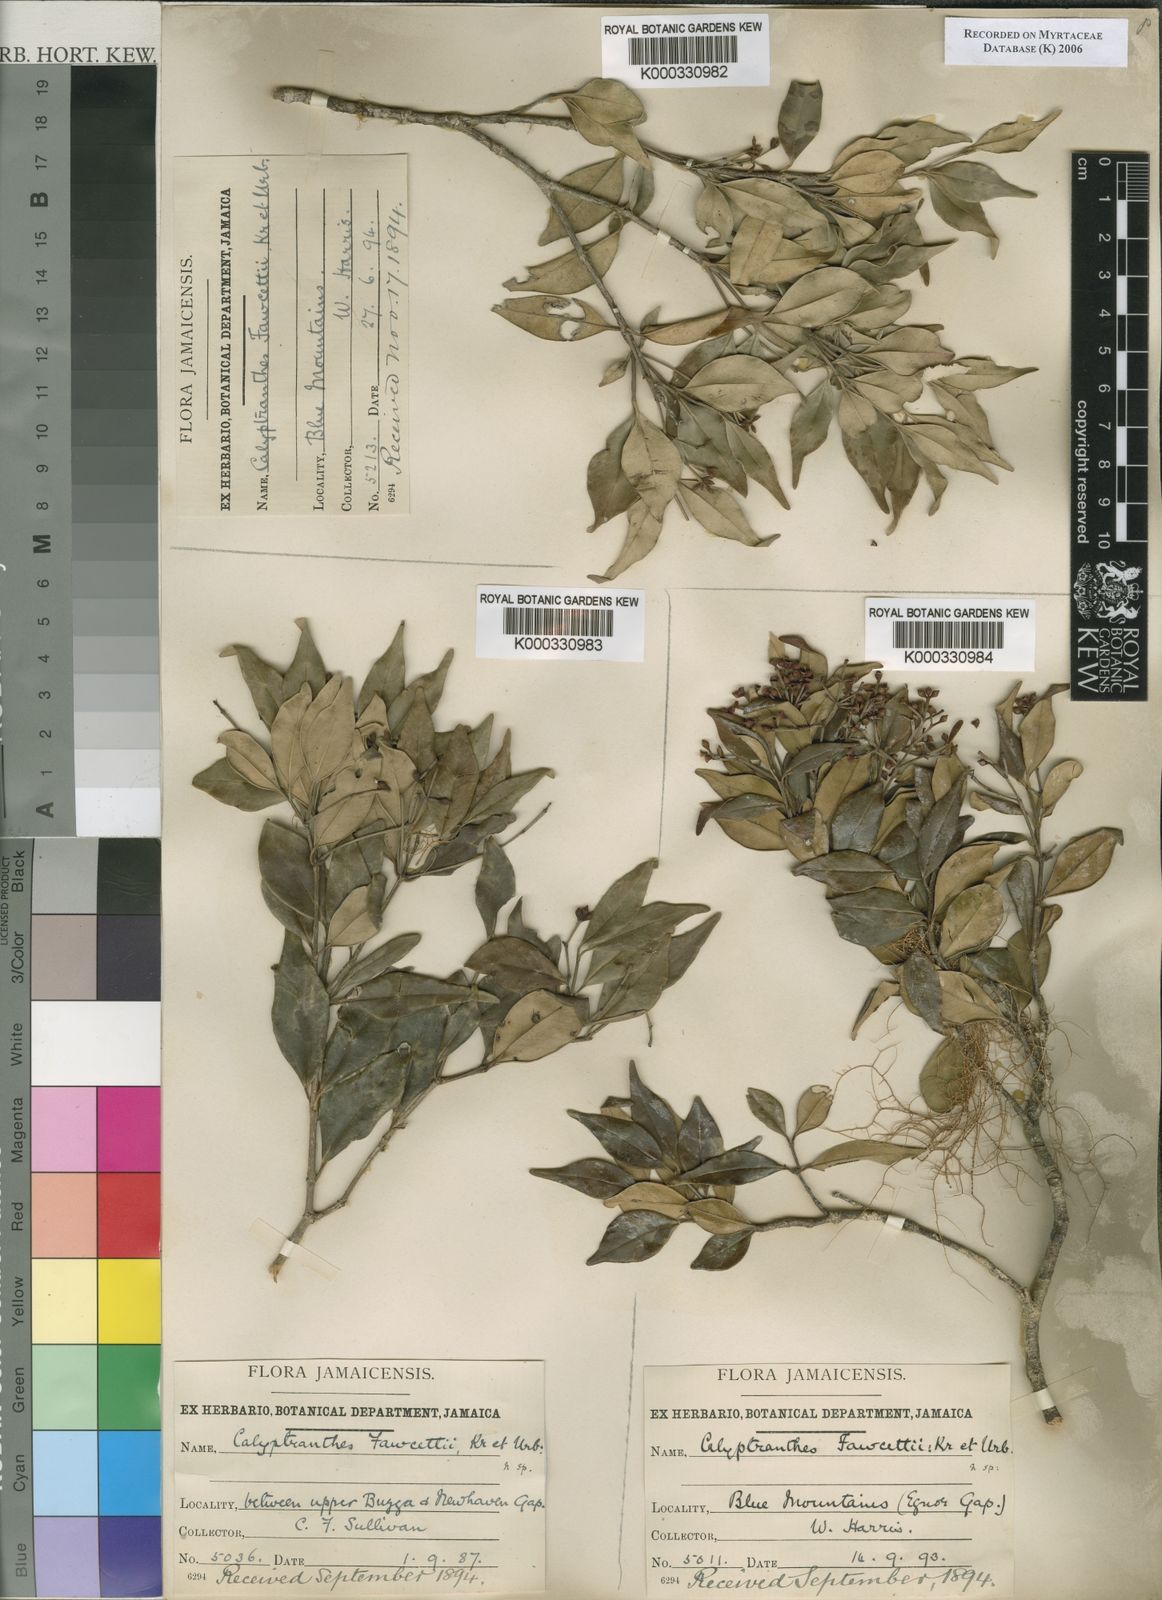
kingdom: Plantae
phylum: Tracheophyta
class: Magnoliopsida
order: Myrtales
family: Myrtaceae
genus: Myrcia
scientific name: Myrcia rigida
